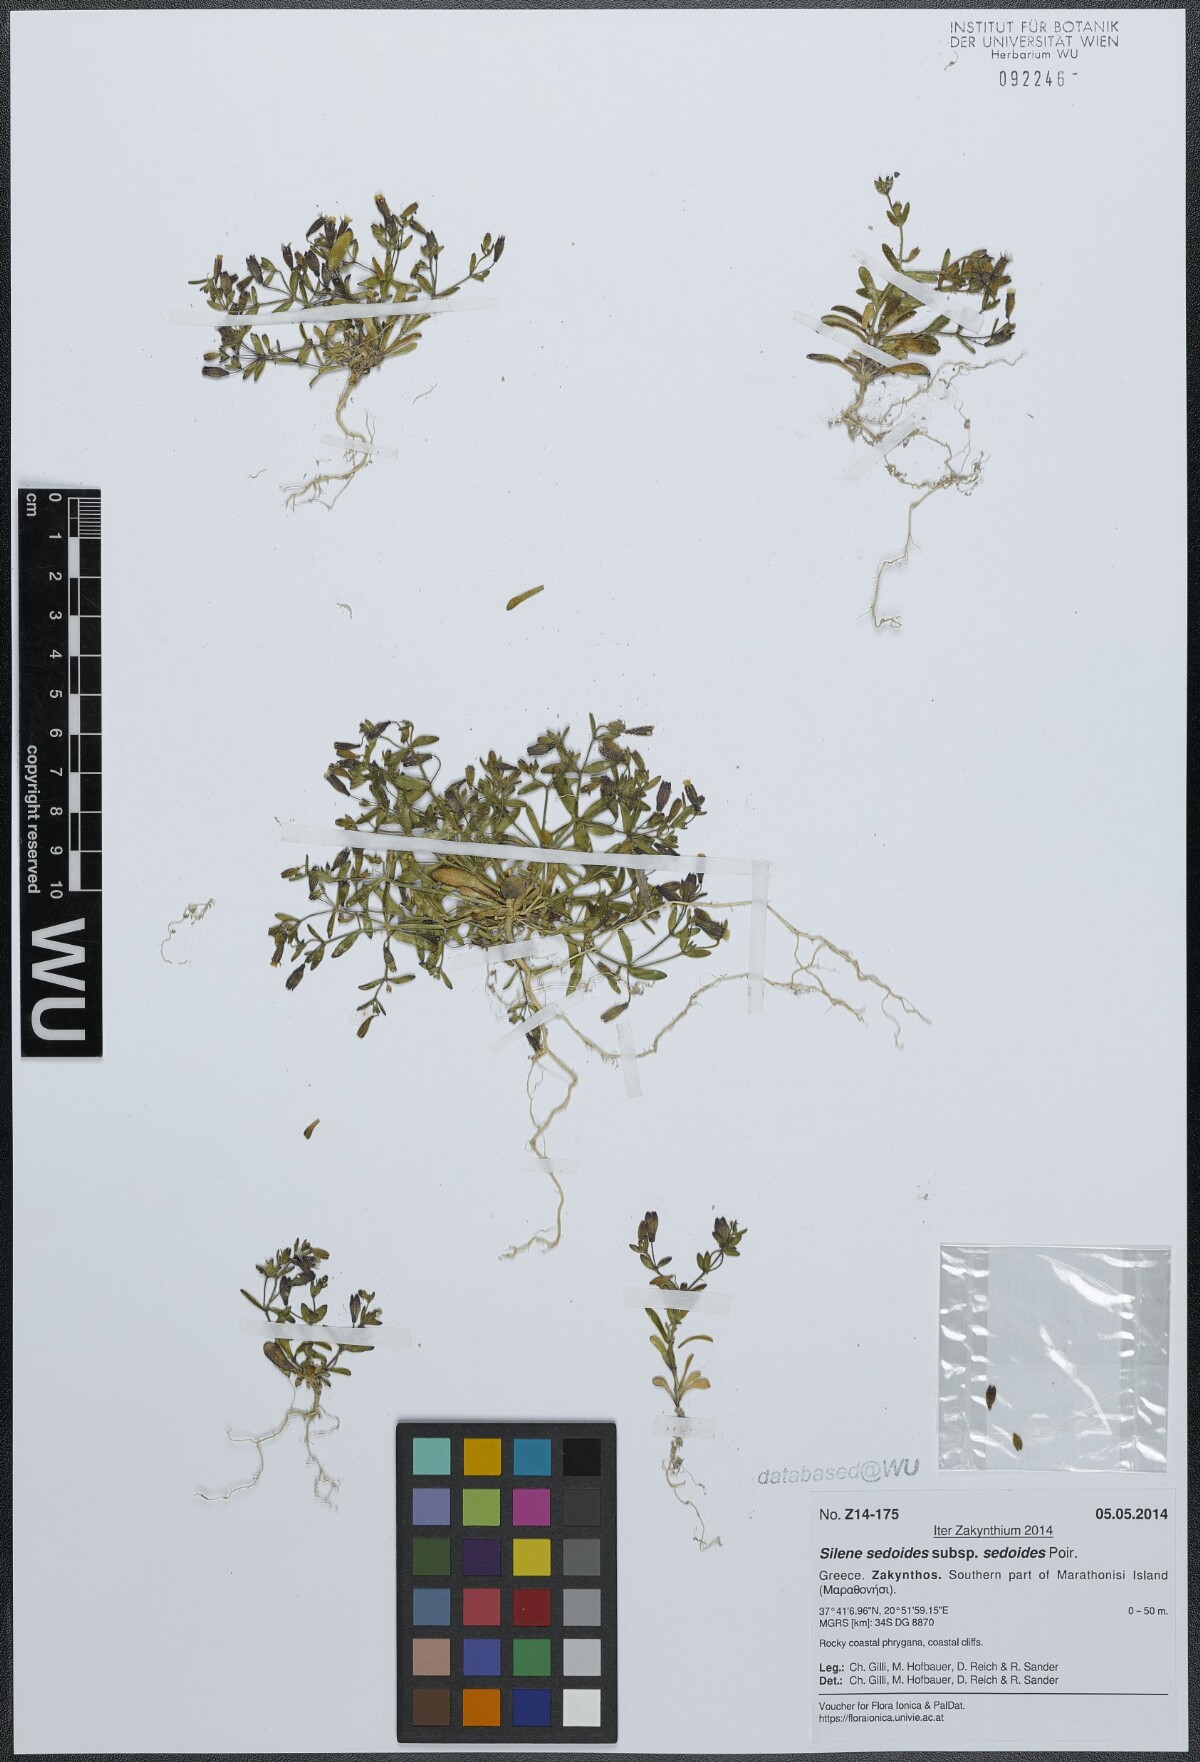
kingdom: Plantae
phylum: Tracheophyta
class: Magnoliopsida
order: Caryophyllales
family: Caryophyllaceae
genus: Silene
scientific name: Silene sedoides
